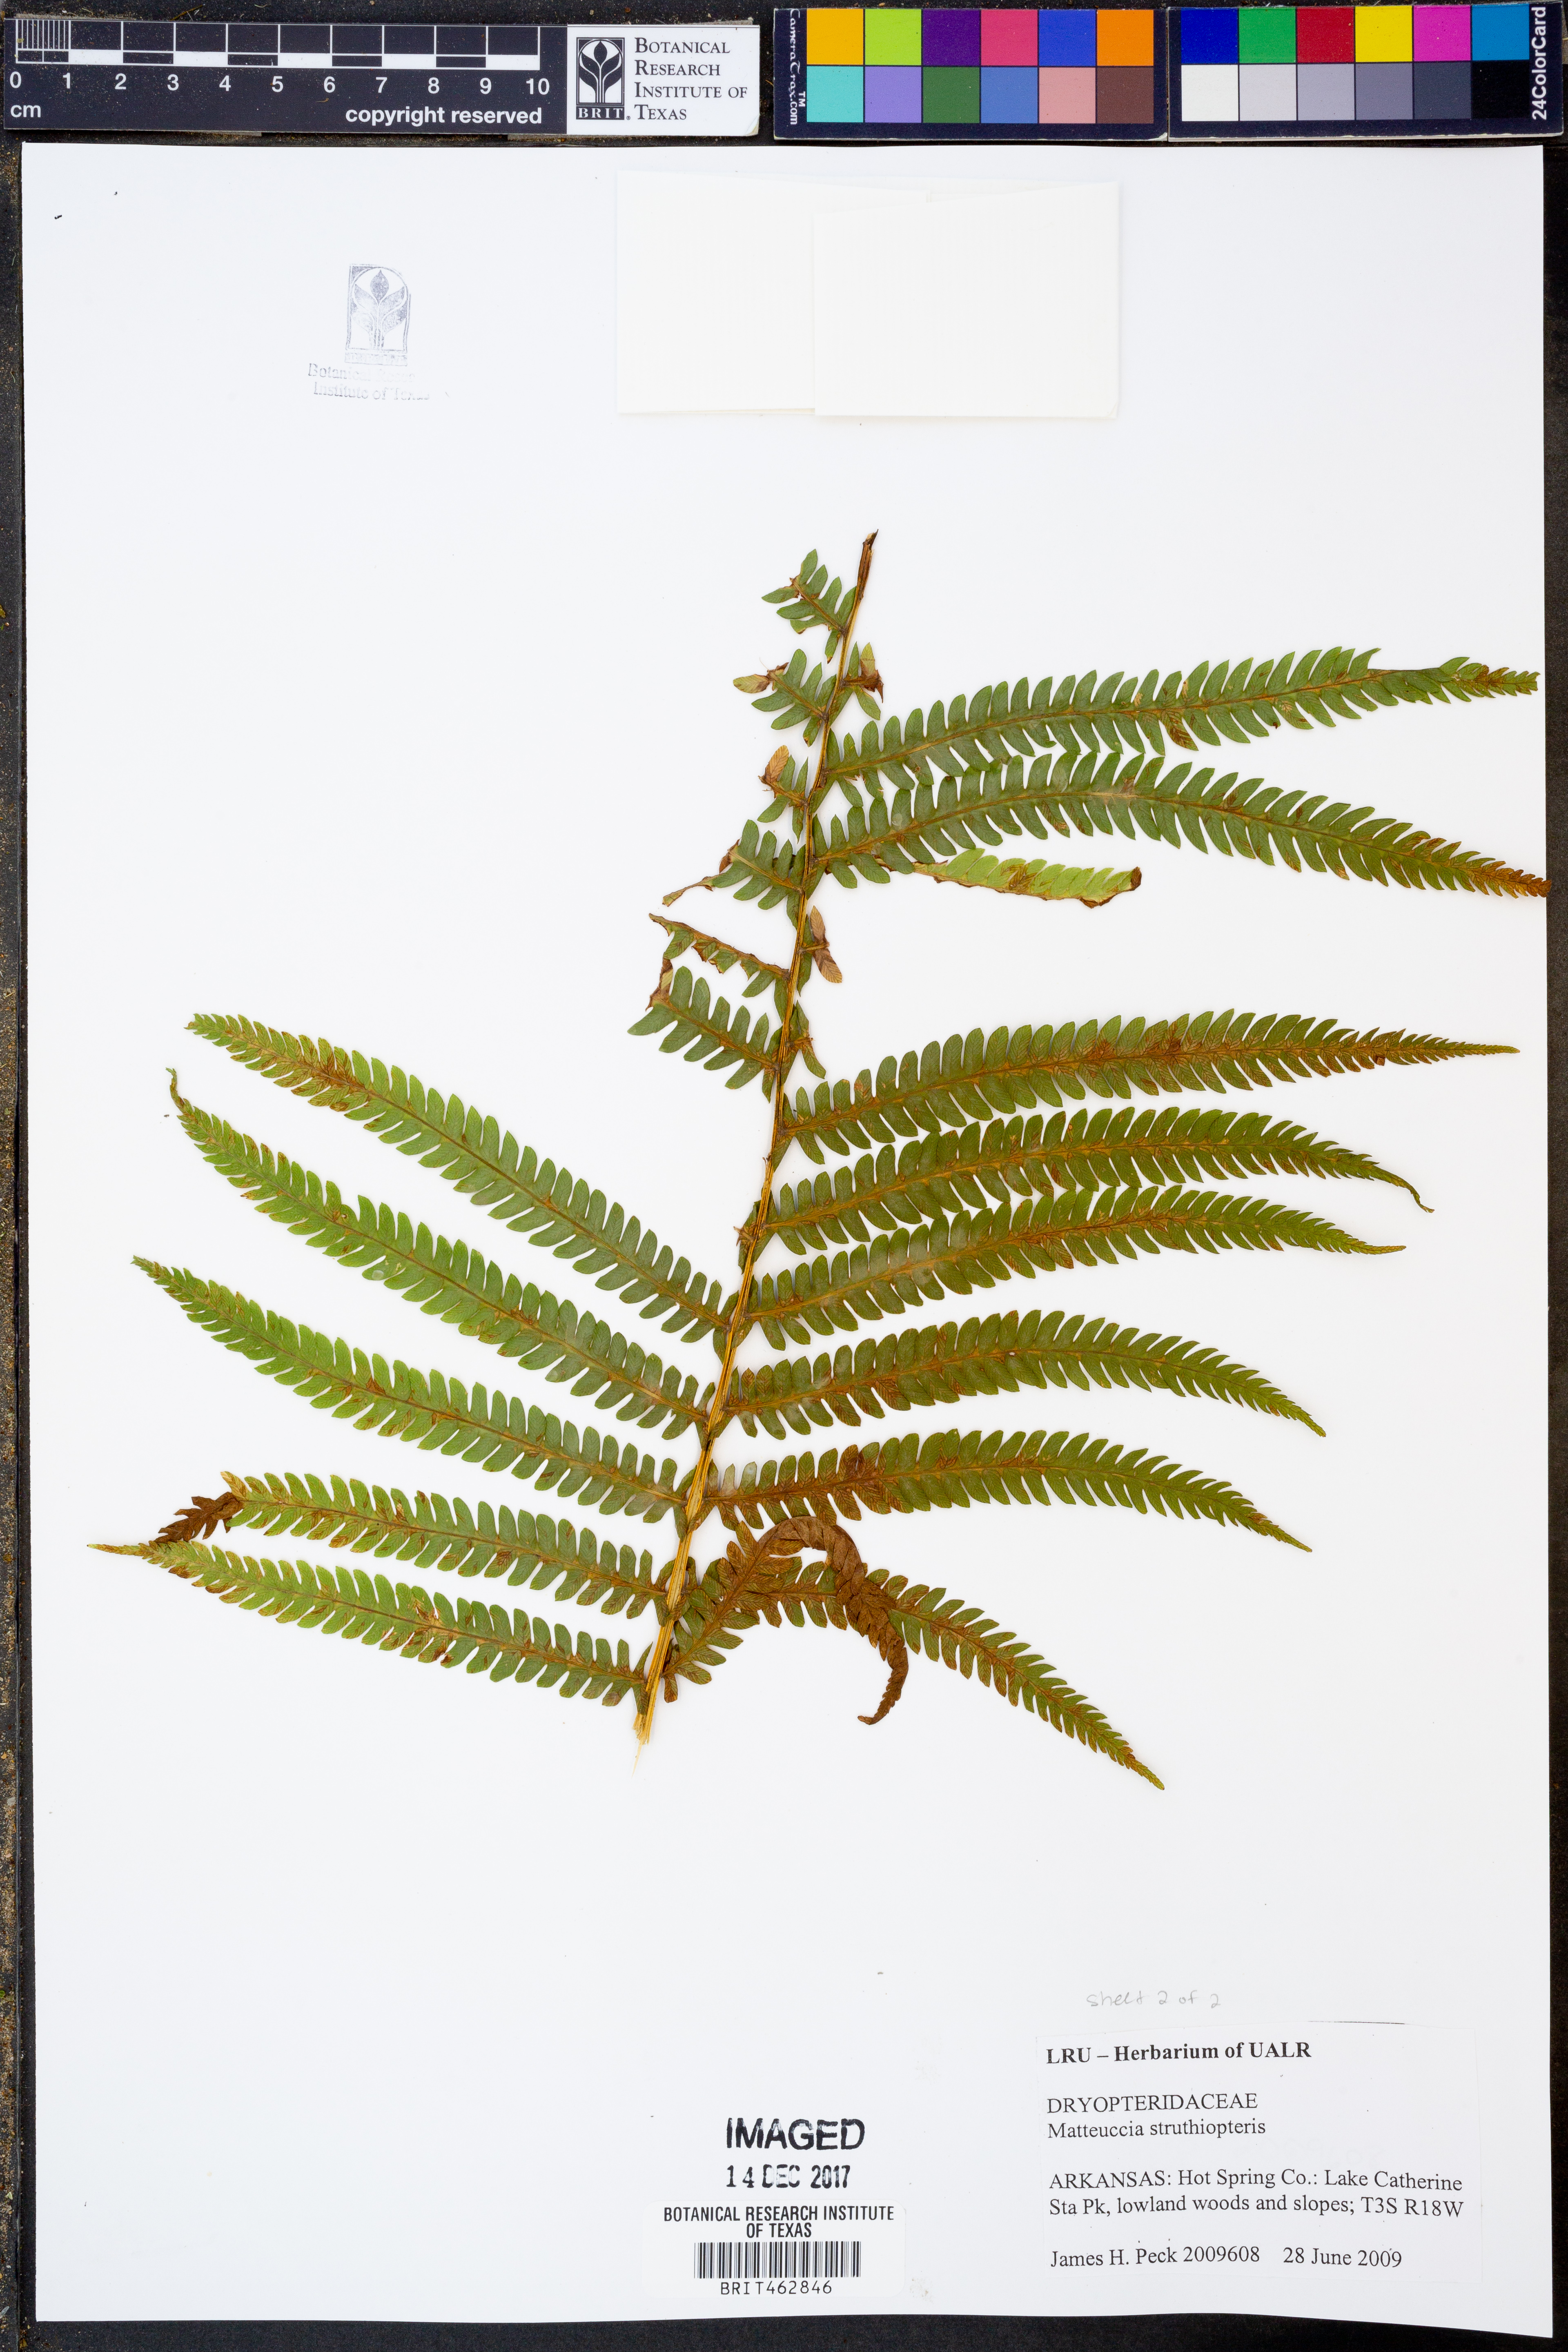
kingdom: Plantae
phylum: Tracheophyta
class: Polypodiopsida
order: Polypodiales
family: Onocleaceae
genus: Matteuccia
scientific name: Matteuccia struthiopteris
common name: Ostrich fern
